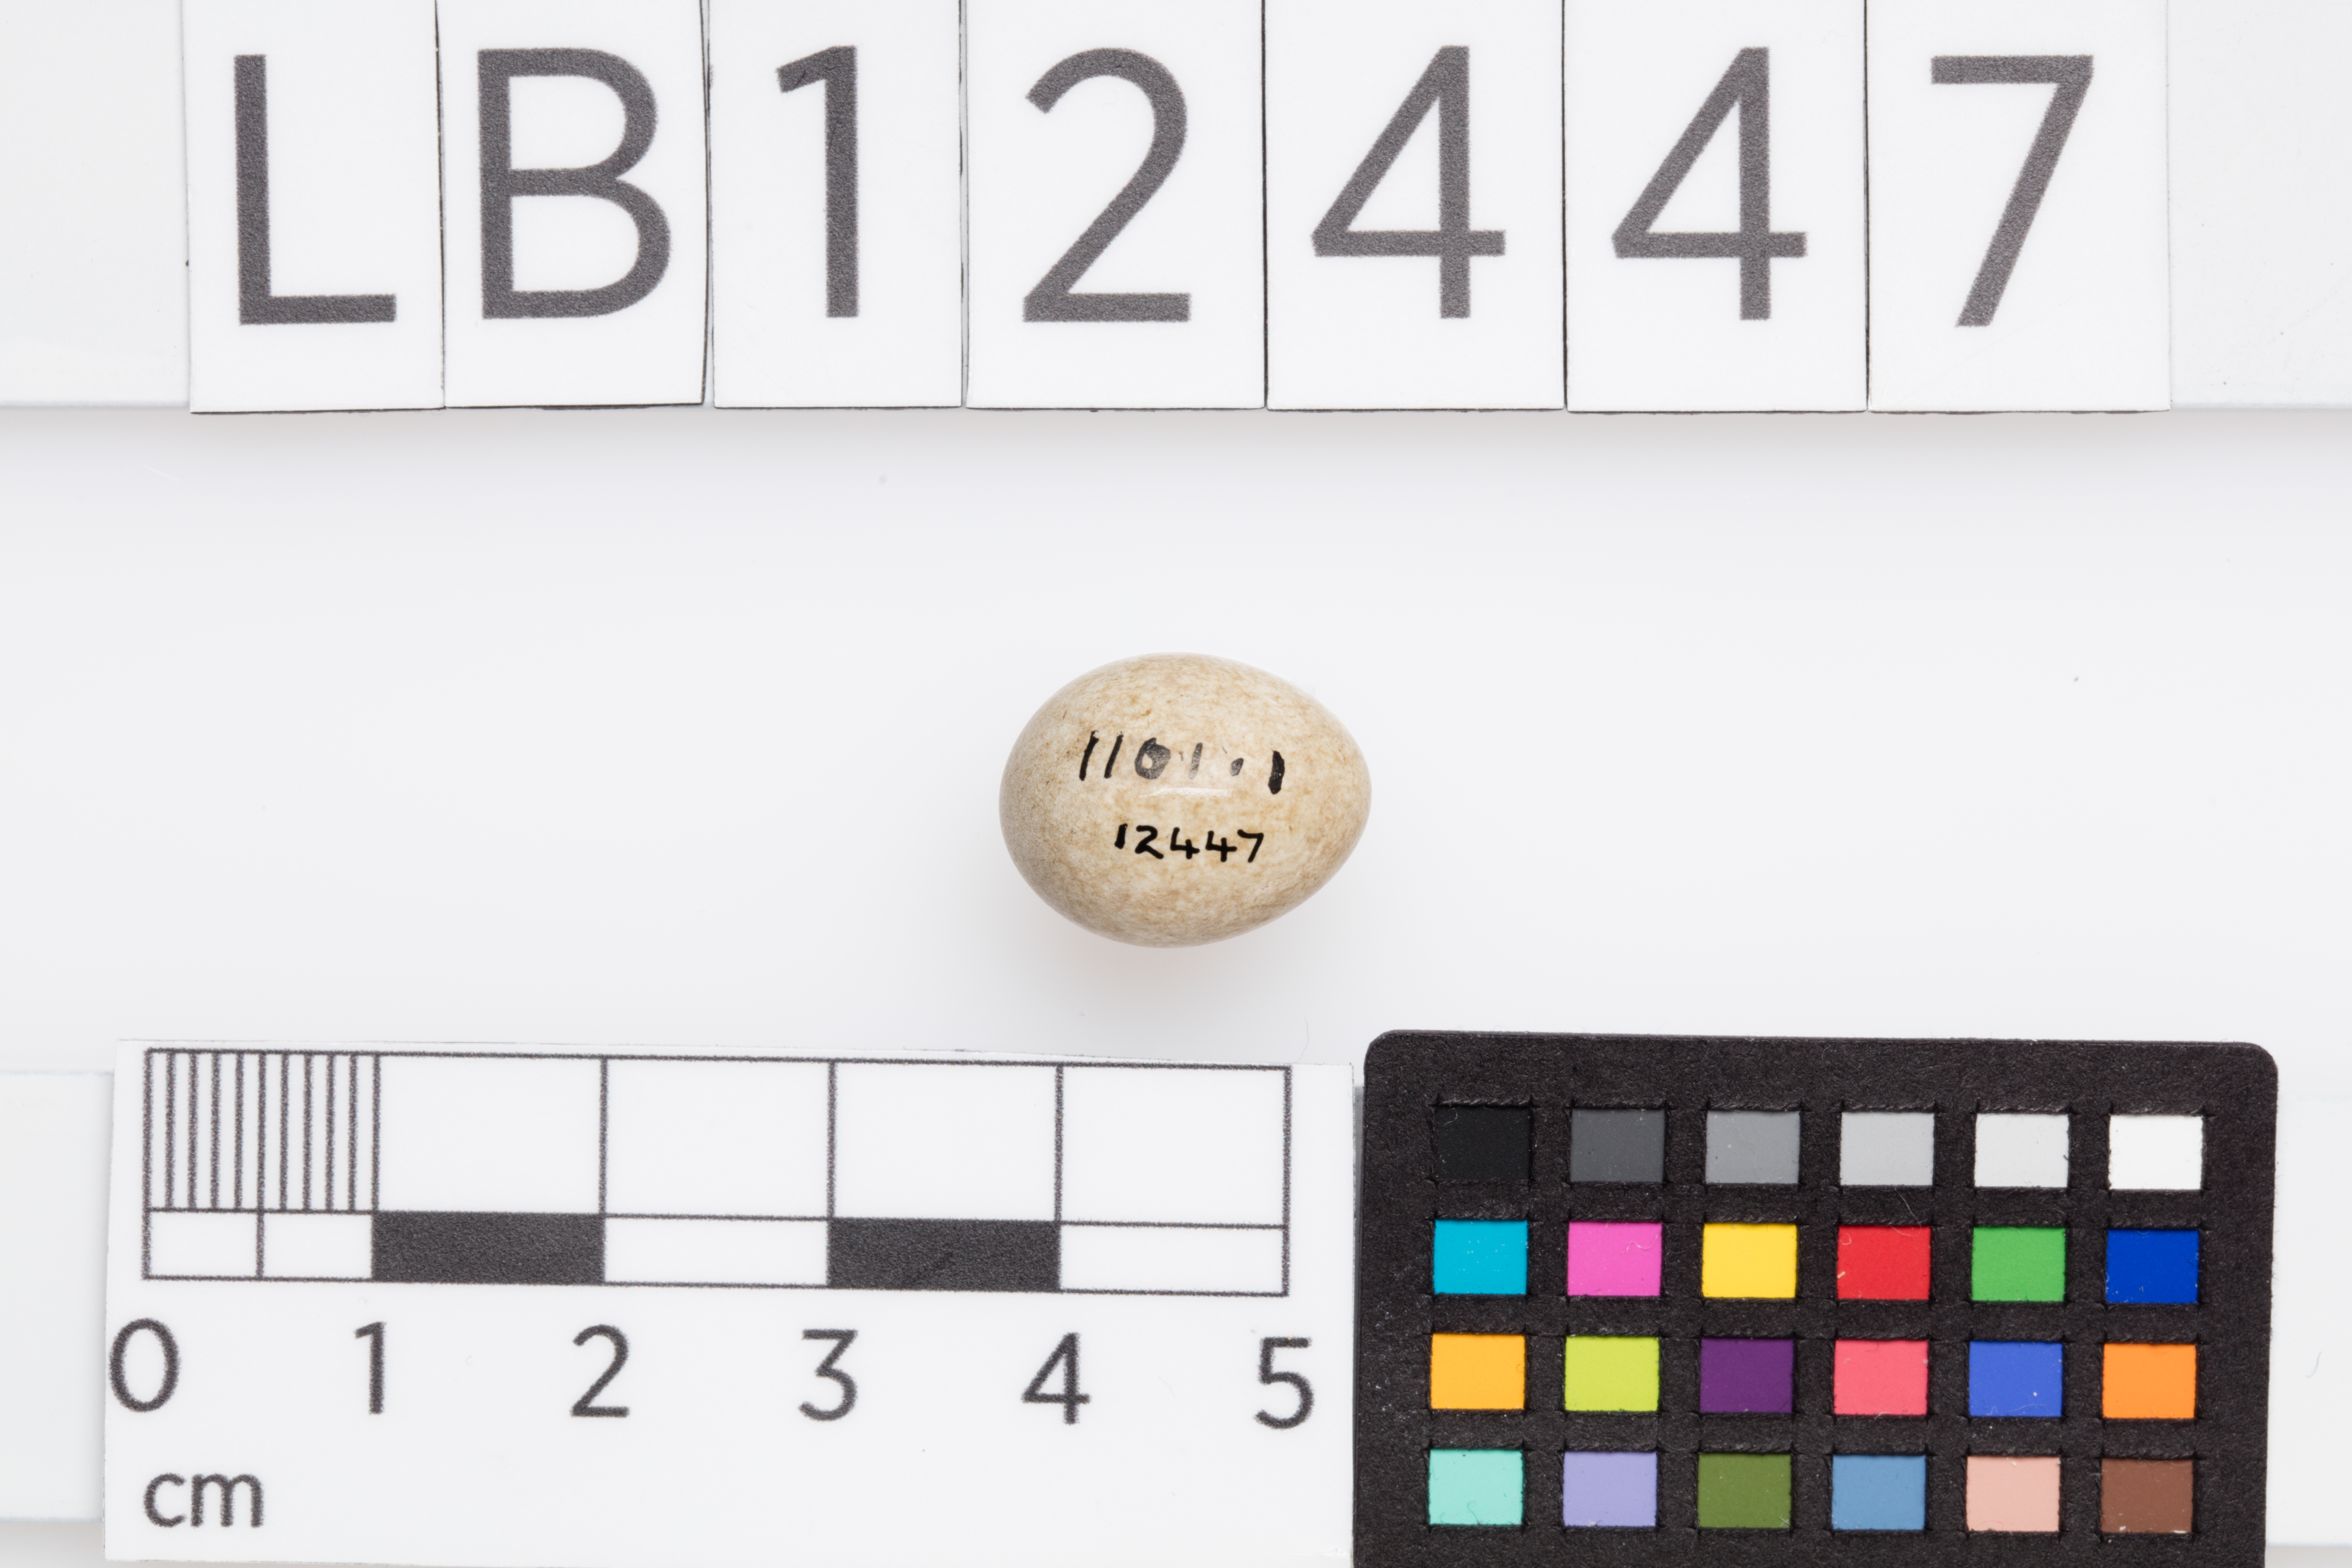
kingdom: Animalia
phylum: Chordata
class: Aves
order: Passeriformes
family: Sylviidae
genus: Sylvia
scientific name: Sylvia undata
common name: Dartford warbler
